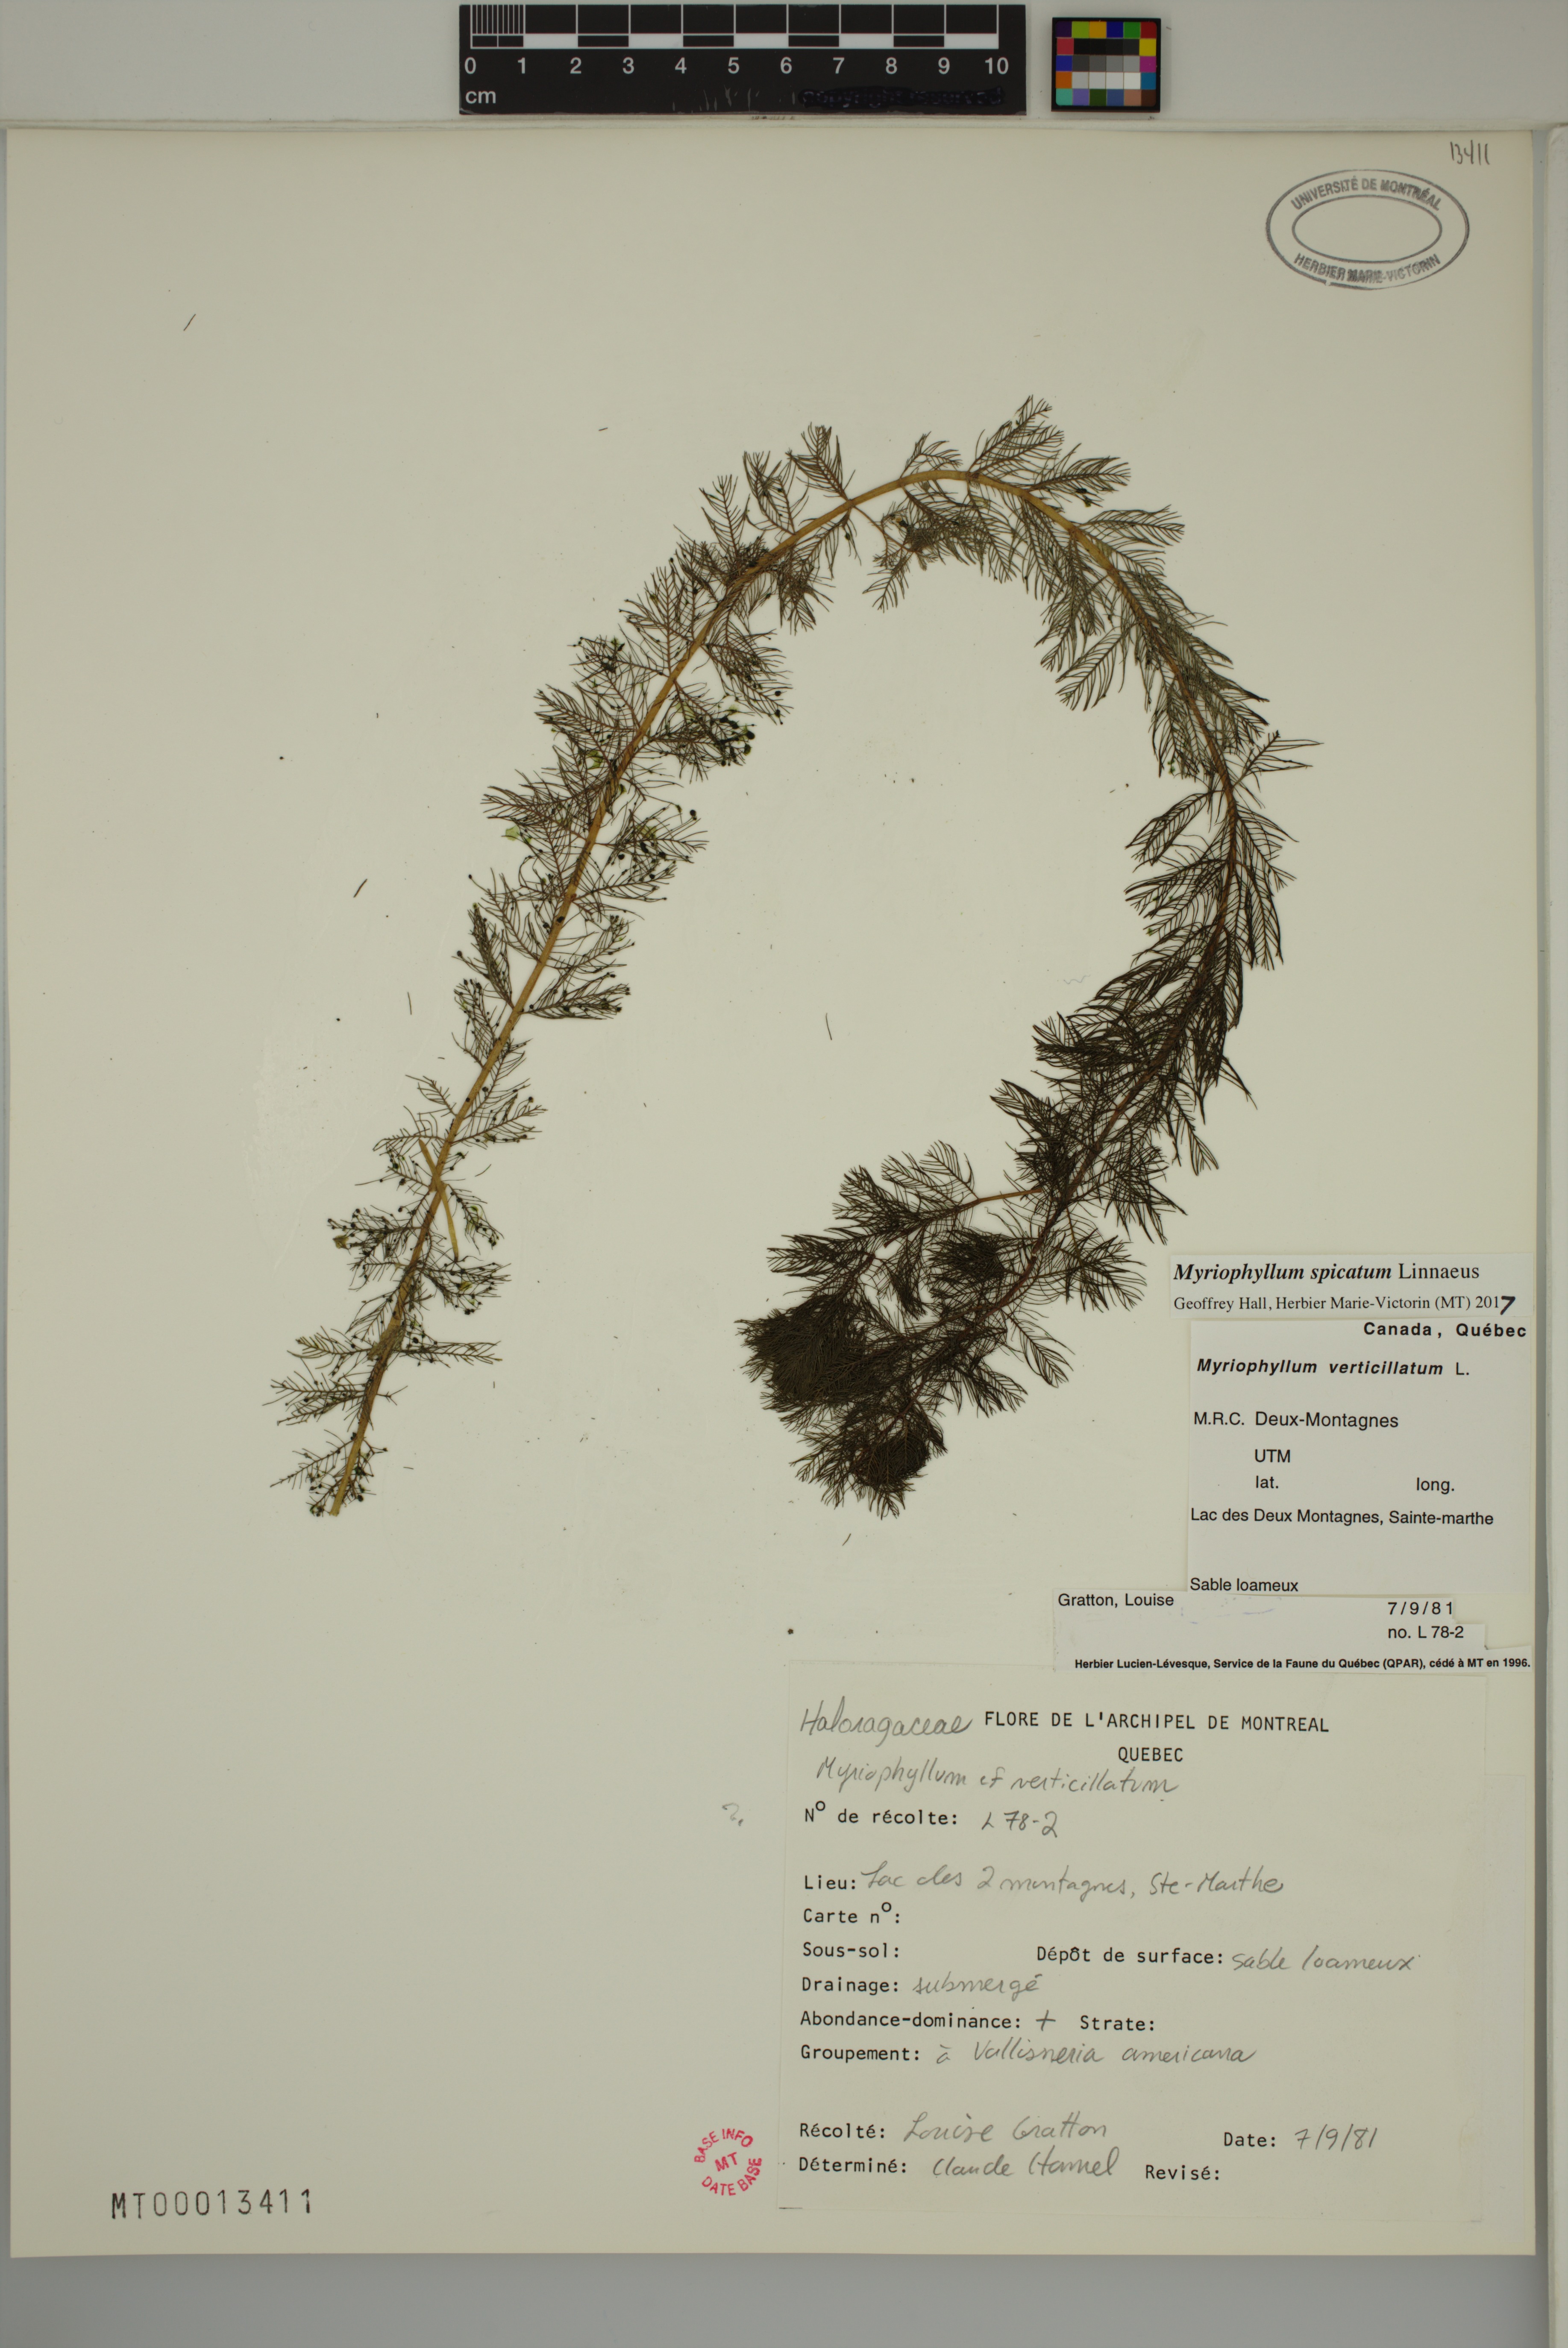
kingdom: Plantae
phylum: Tracheophyta
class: Magnoliopsida
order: Saxifragales
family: Haloragaceae
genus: Myriophyllum
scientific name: Myriophyllum spicatum
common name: Spiked water-milfoil
